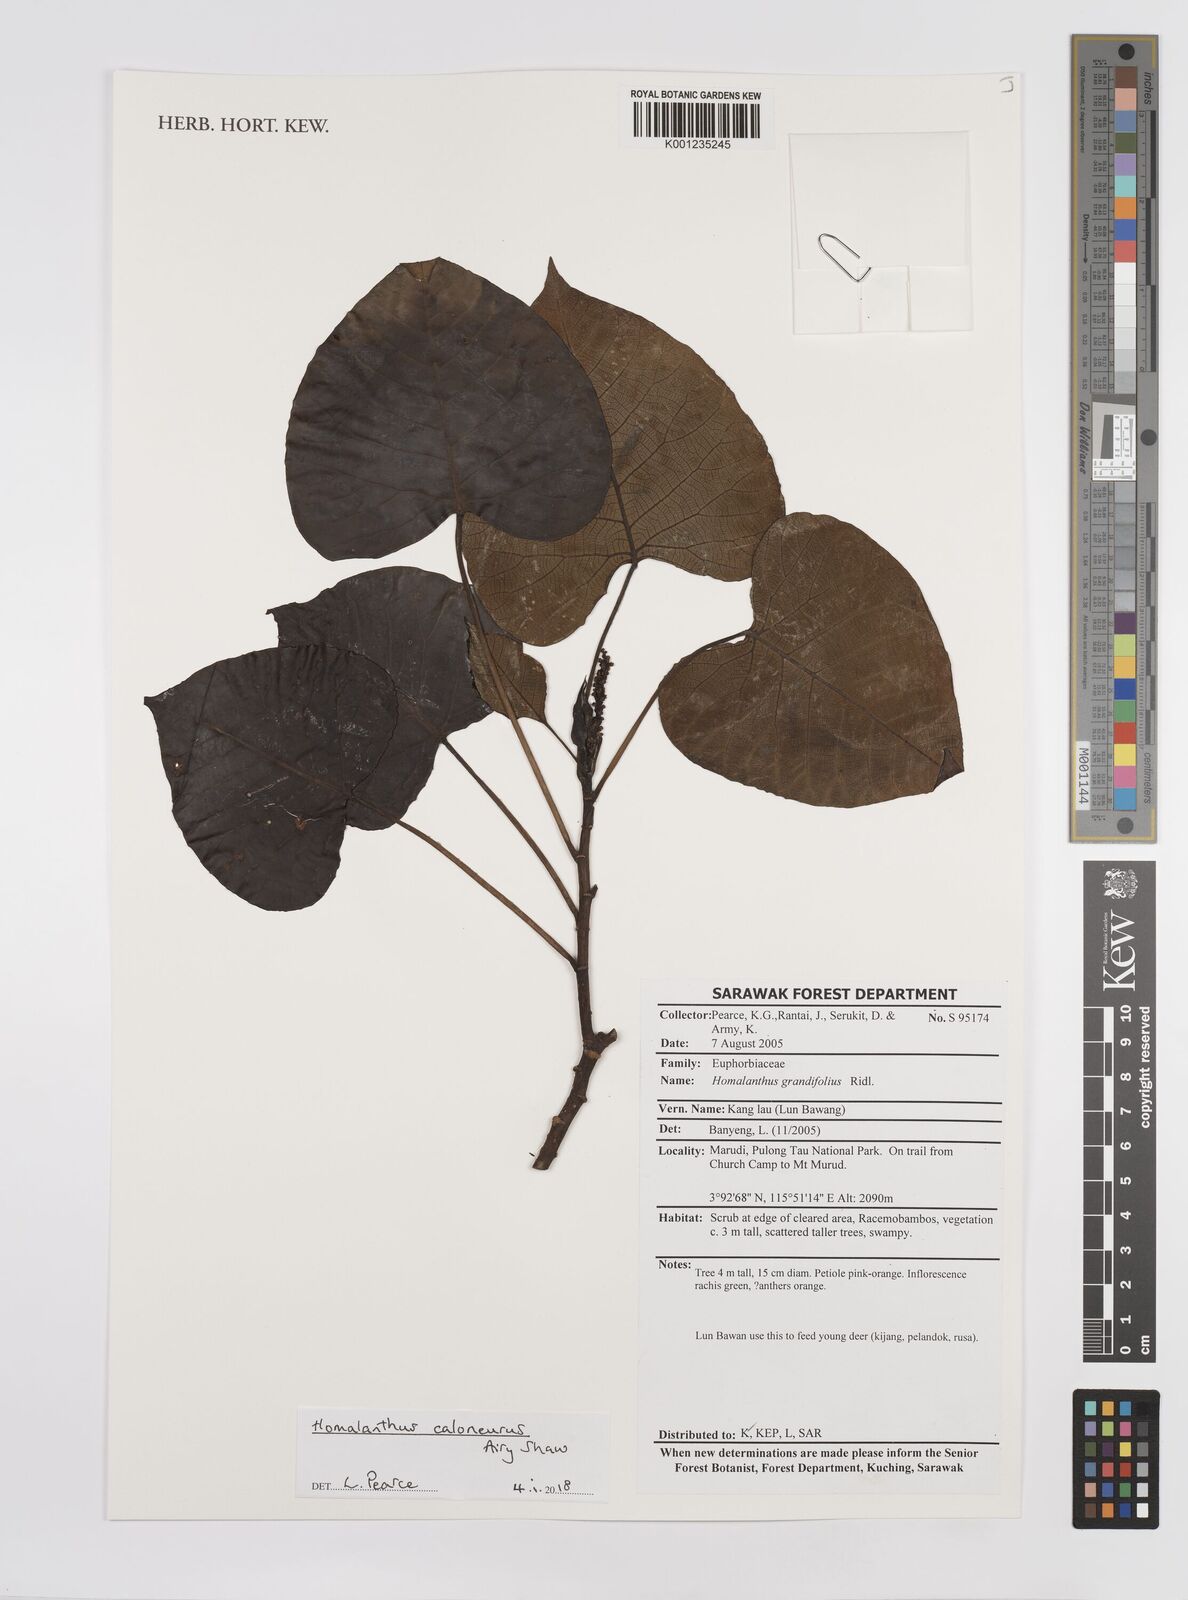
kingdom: Plantae
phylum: Tracheophyta
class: Magnoliopsida
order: Malpighiales
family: Euphorbiaceae
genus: Homalanthus
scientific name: Homalanthus caloneurus
